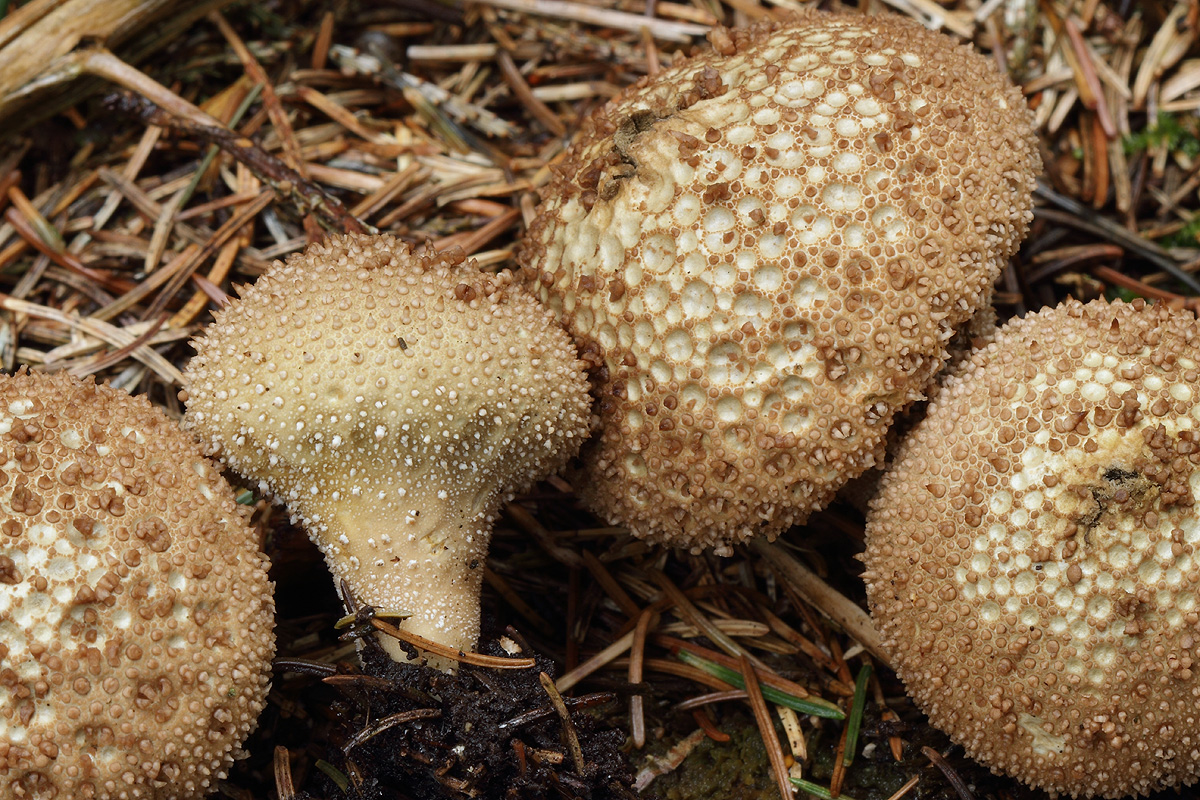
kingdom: Fungi
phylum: Basidiomycota
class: Agaricomycetes
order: Agaricales
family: Lycoperdaceae
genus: Lycoperdon
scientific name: Lycoperdon perlatum
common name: krystal-støvbold
